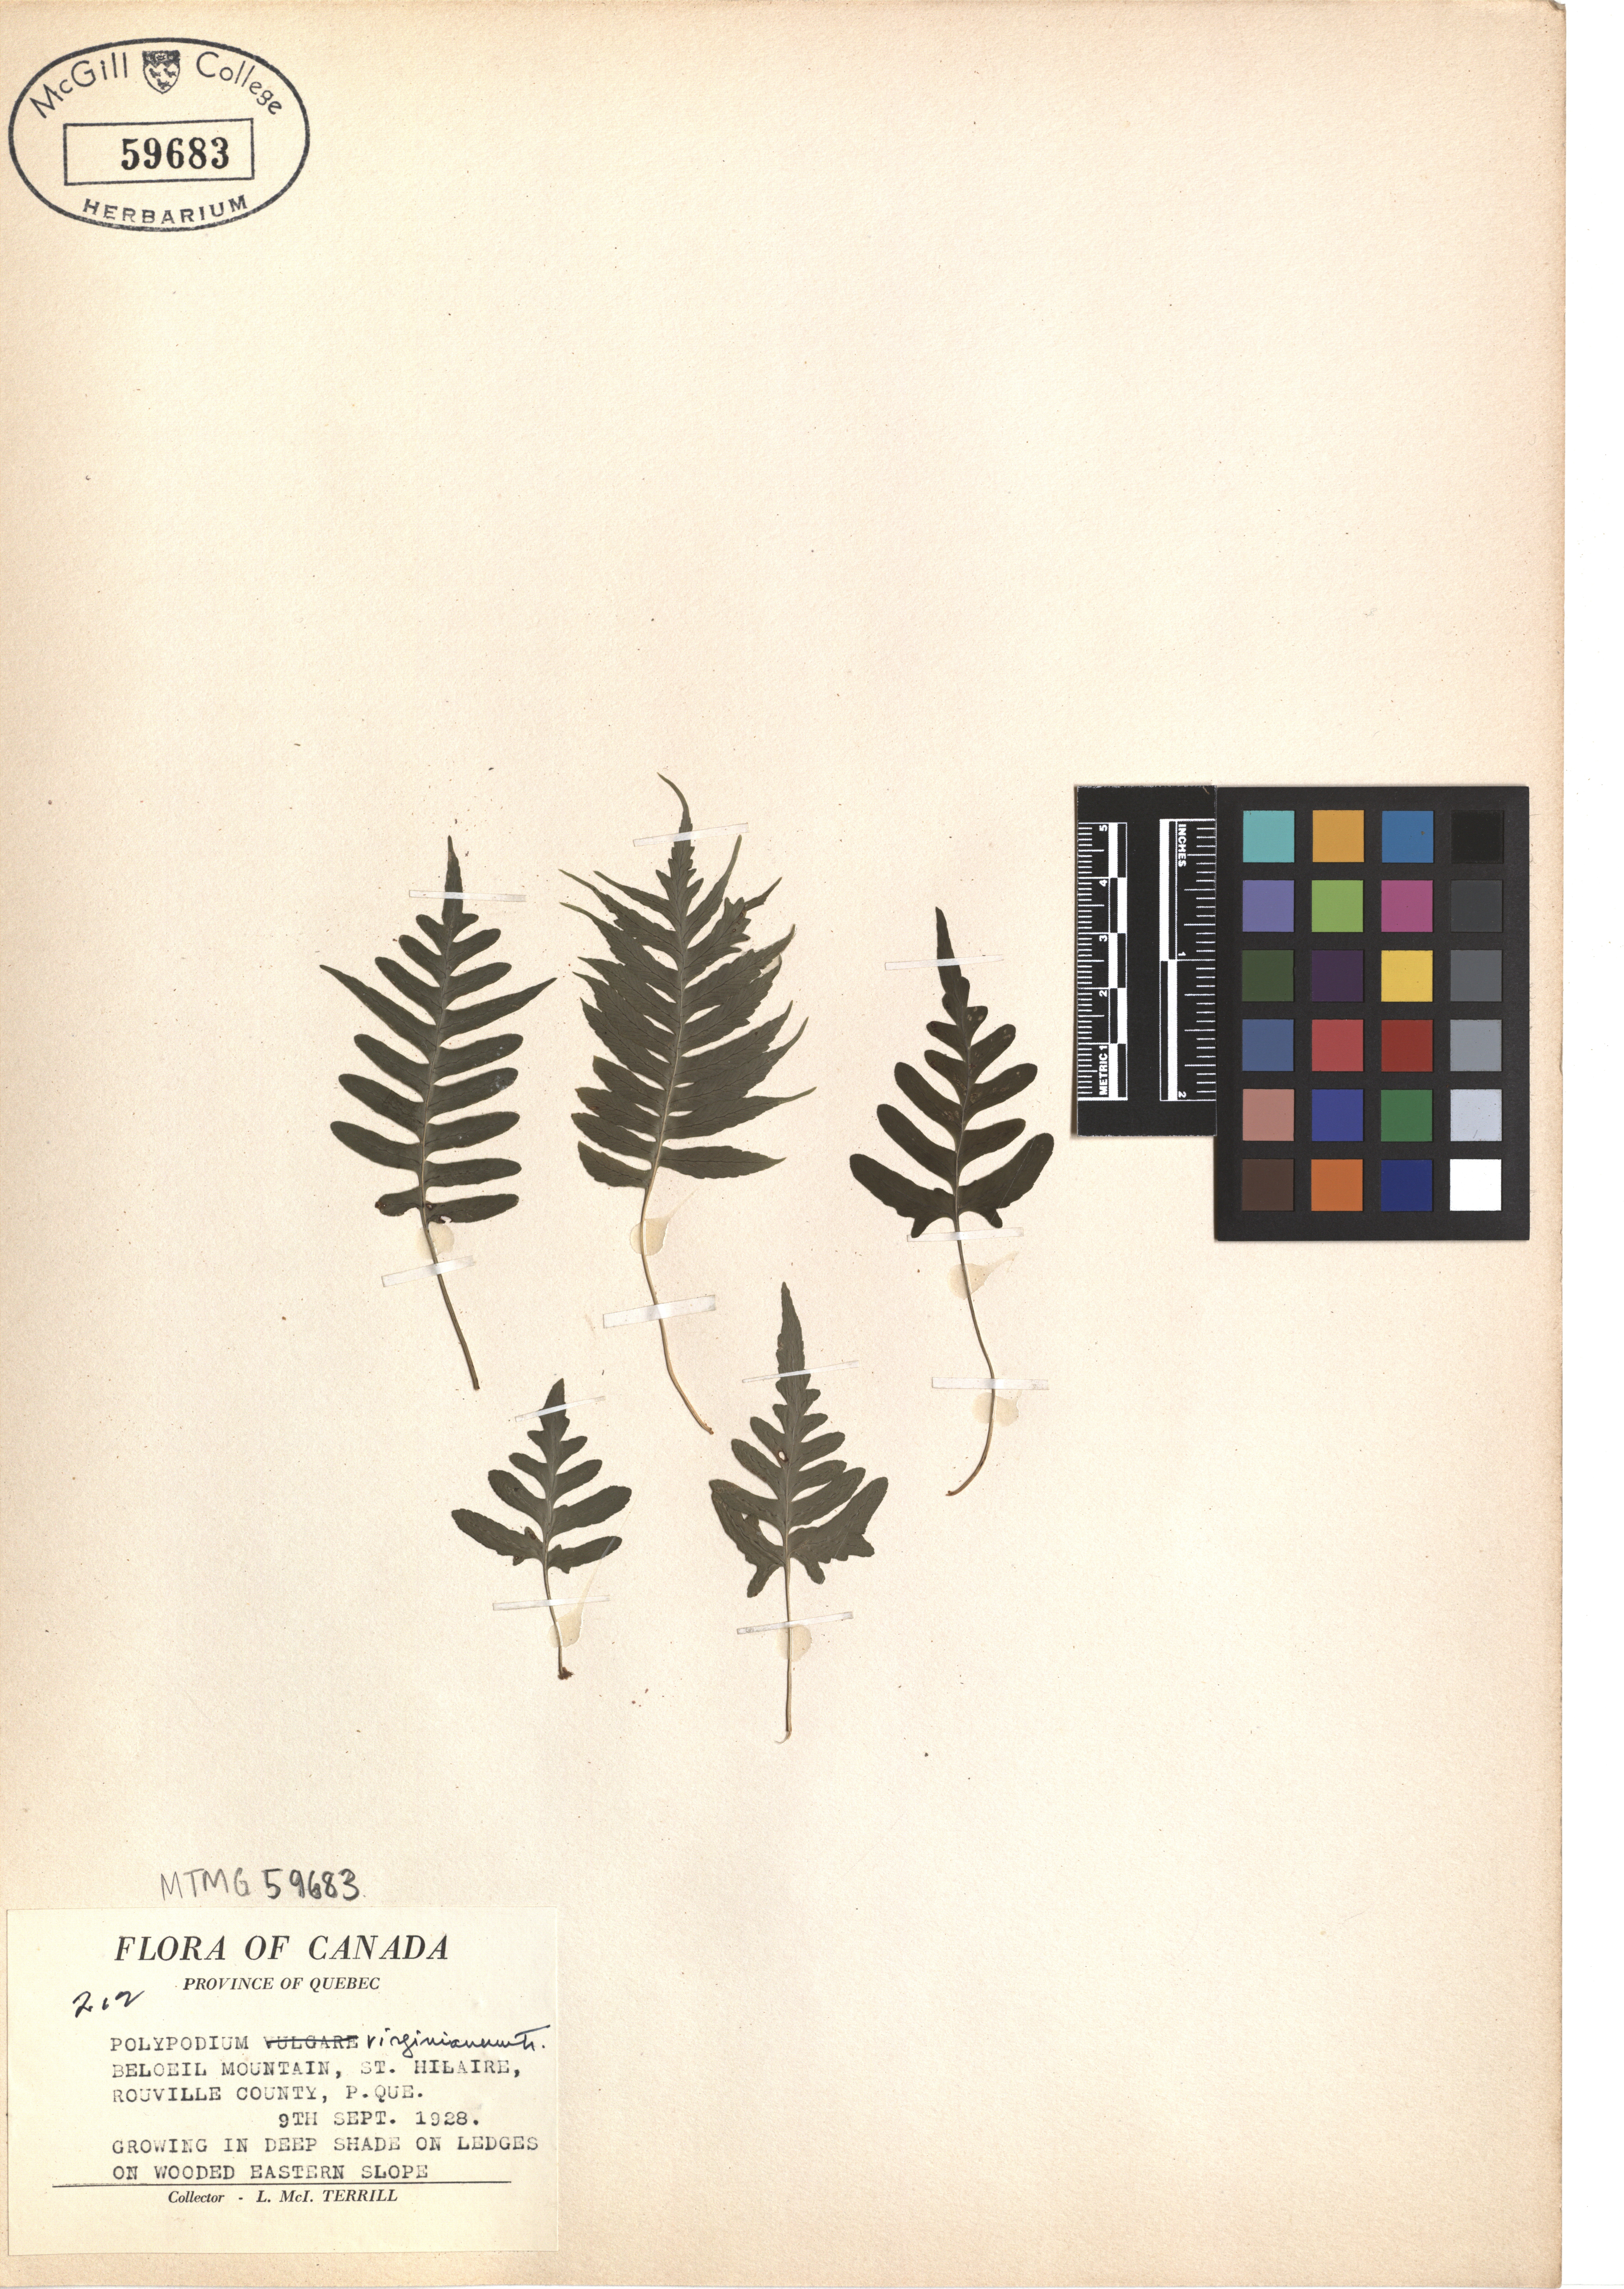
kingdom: Plantae
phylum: Tracheophyta
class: Polypodiopsida
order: Polypodiales
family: Polypodiaceae
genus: Polypodium
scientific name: Polypodium virginianum
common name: American wall fern
